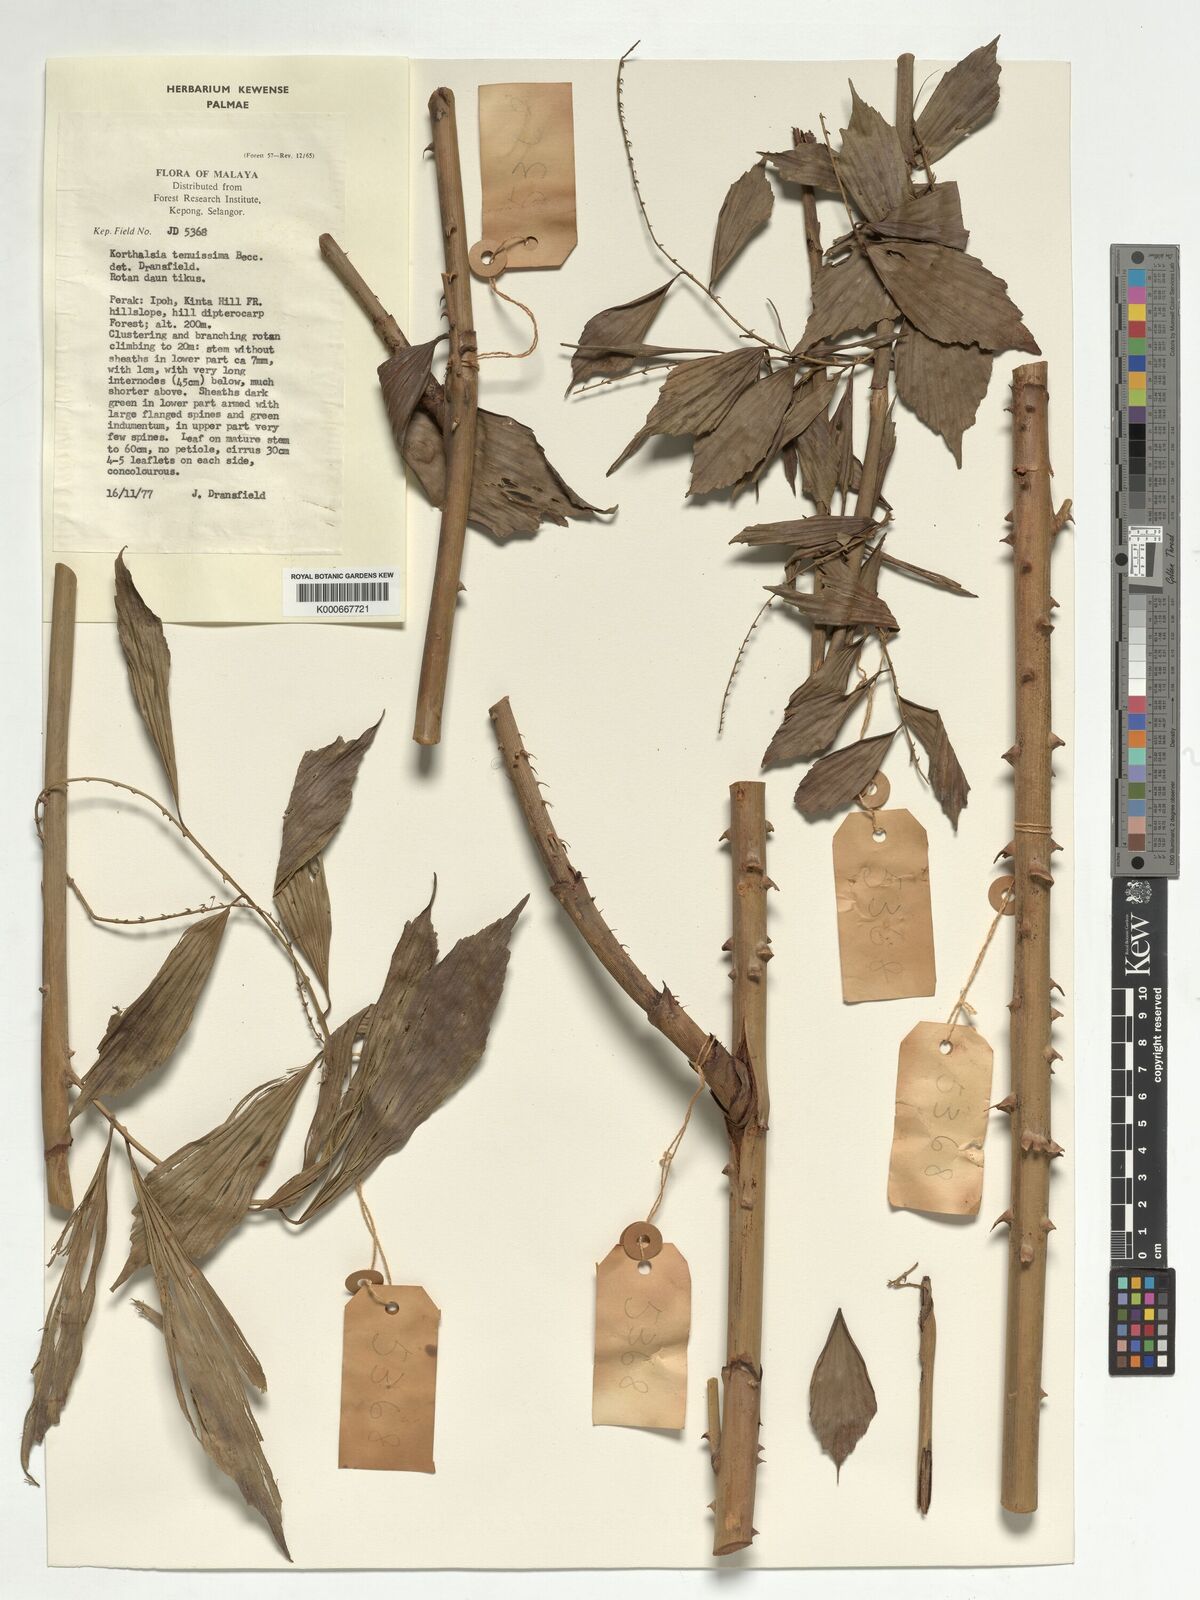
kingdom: Plantae
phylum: Tracheophyta
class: Liliopsida
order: Arecales
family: Arecaceae
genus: Korthalsia
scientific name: Korthalsia tenuissima
